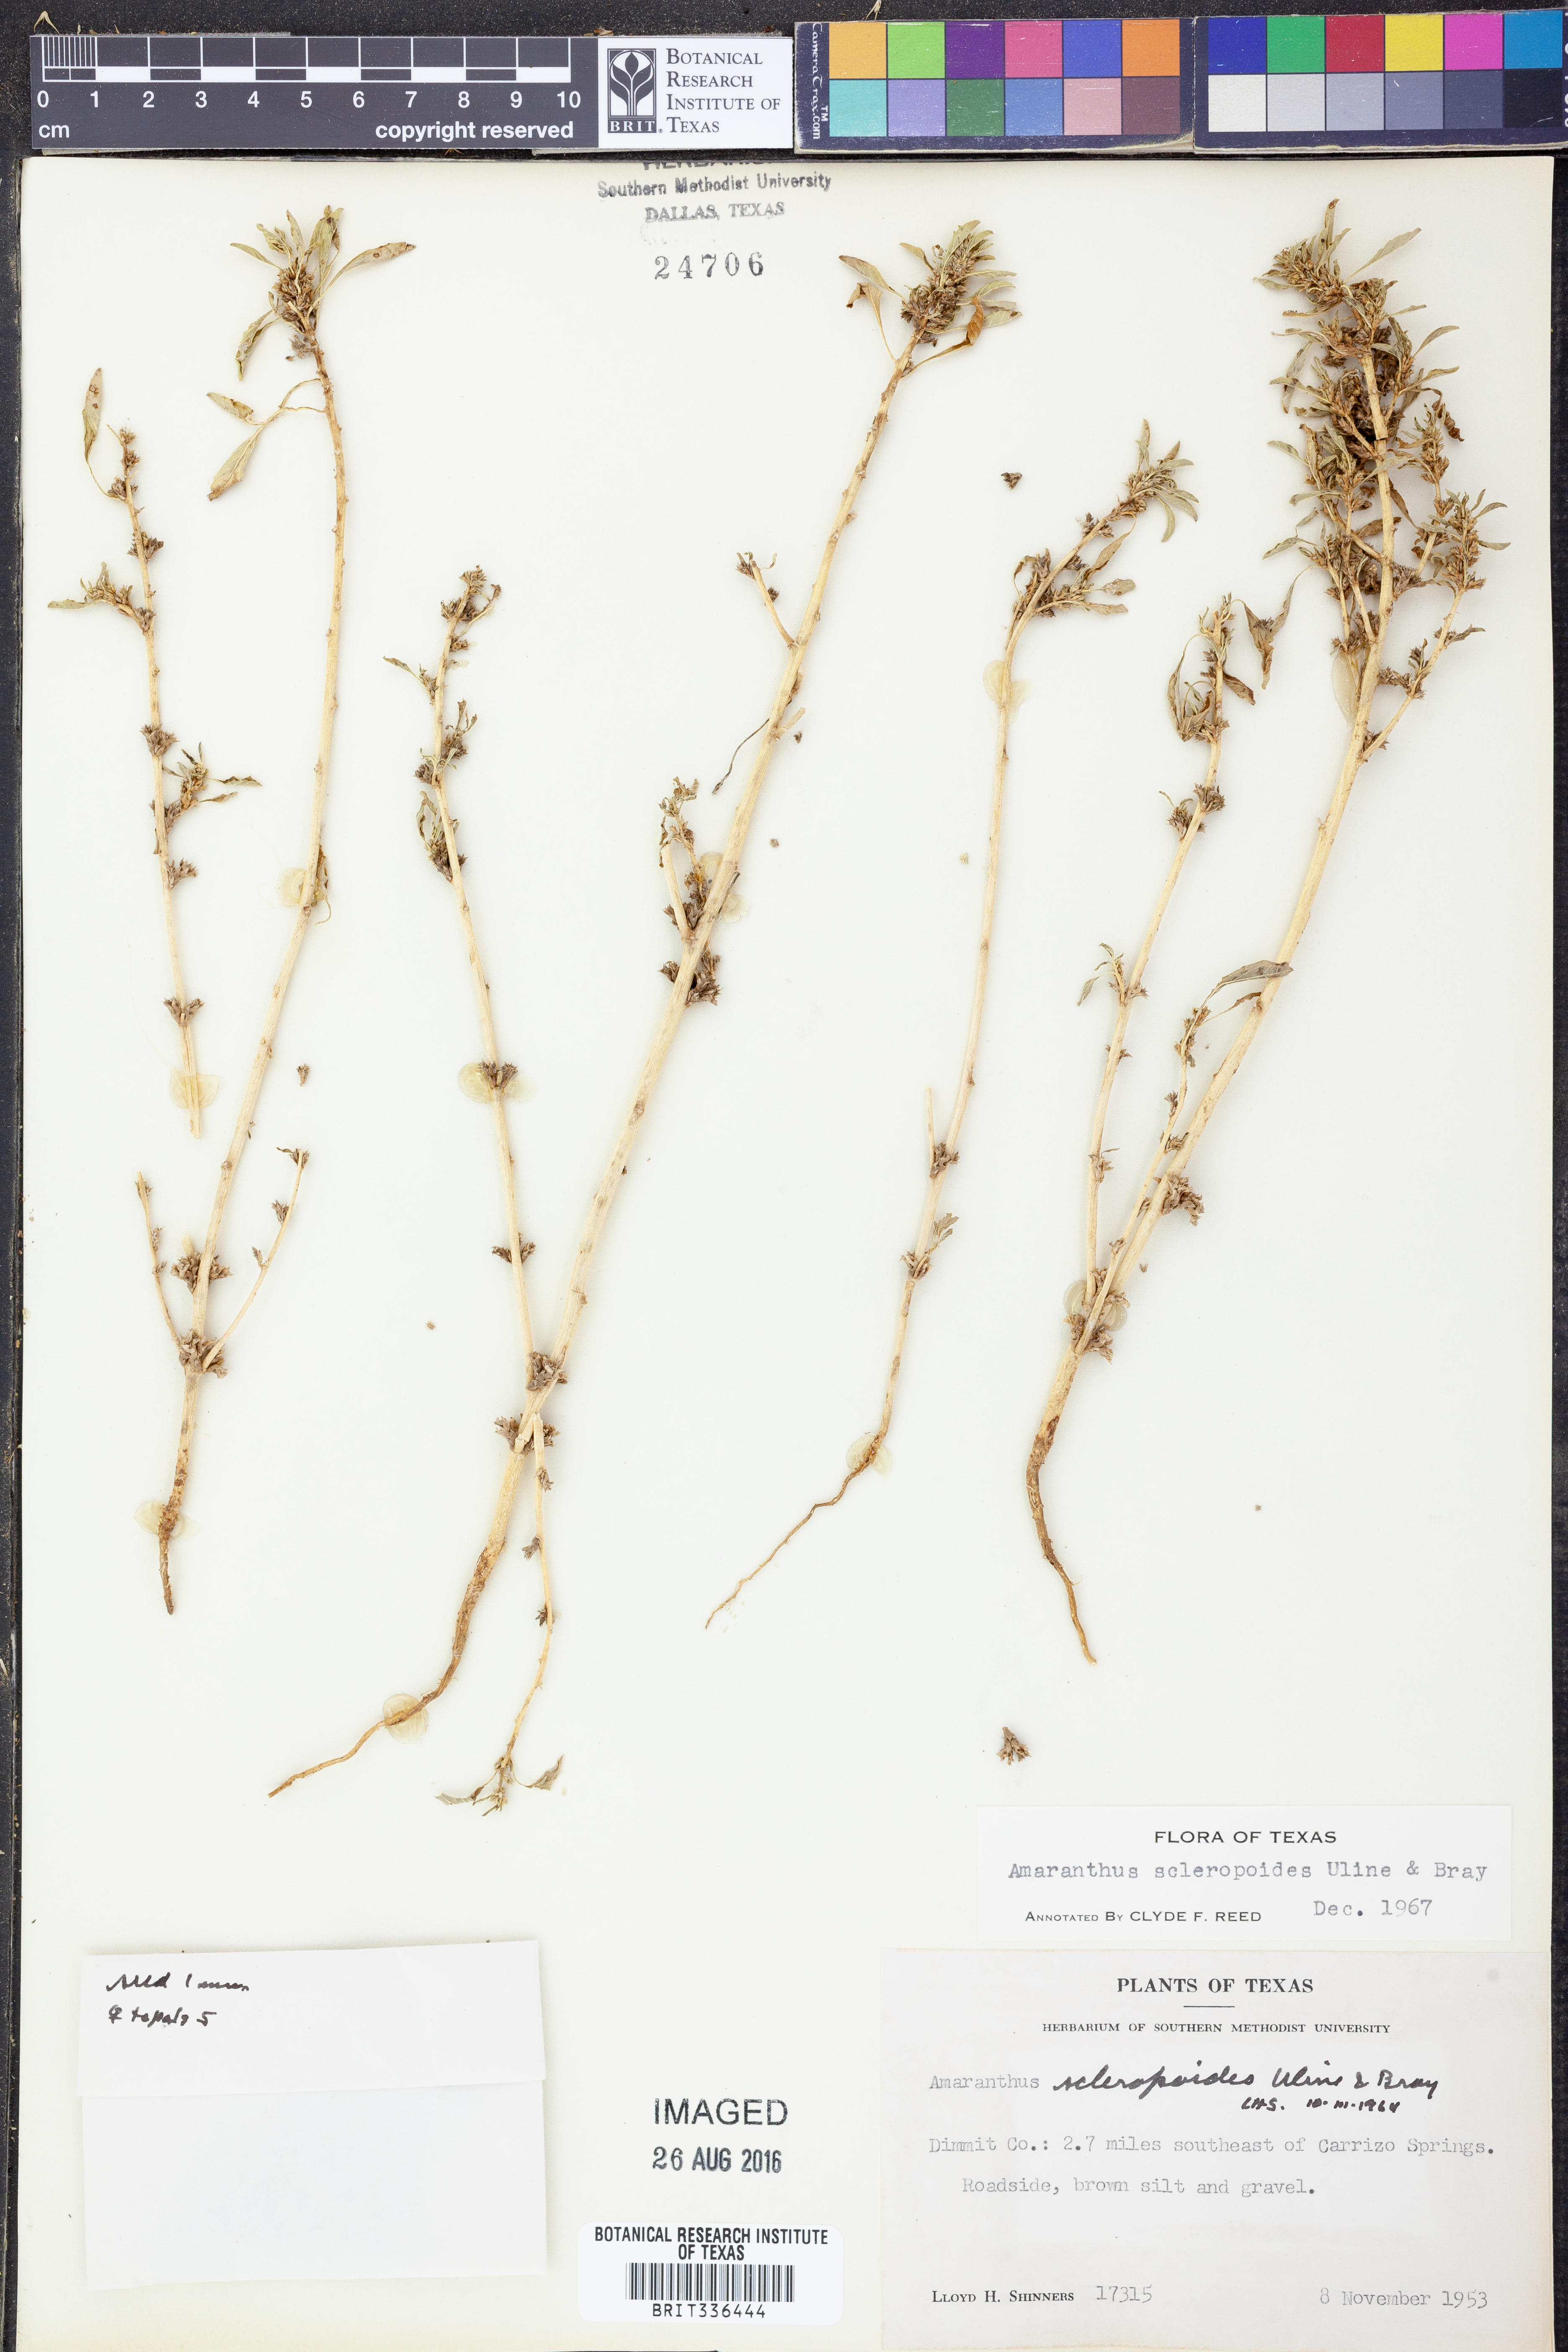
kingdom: Plantae
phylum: Tracheophyta
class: Magnoliopsida
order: Caryophyllales
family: Amaranthaceae
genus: Amaranthus
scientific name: Amaranthus scleropoides
